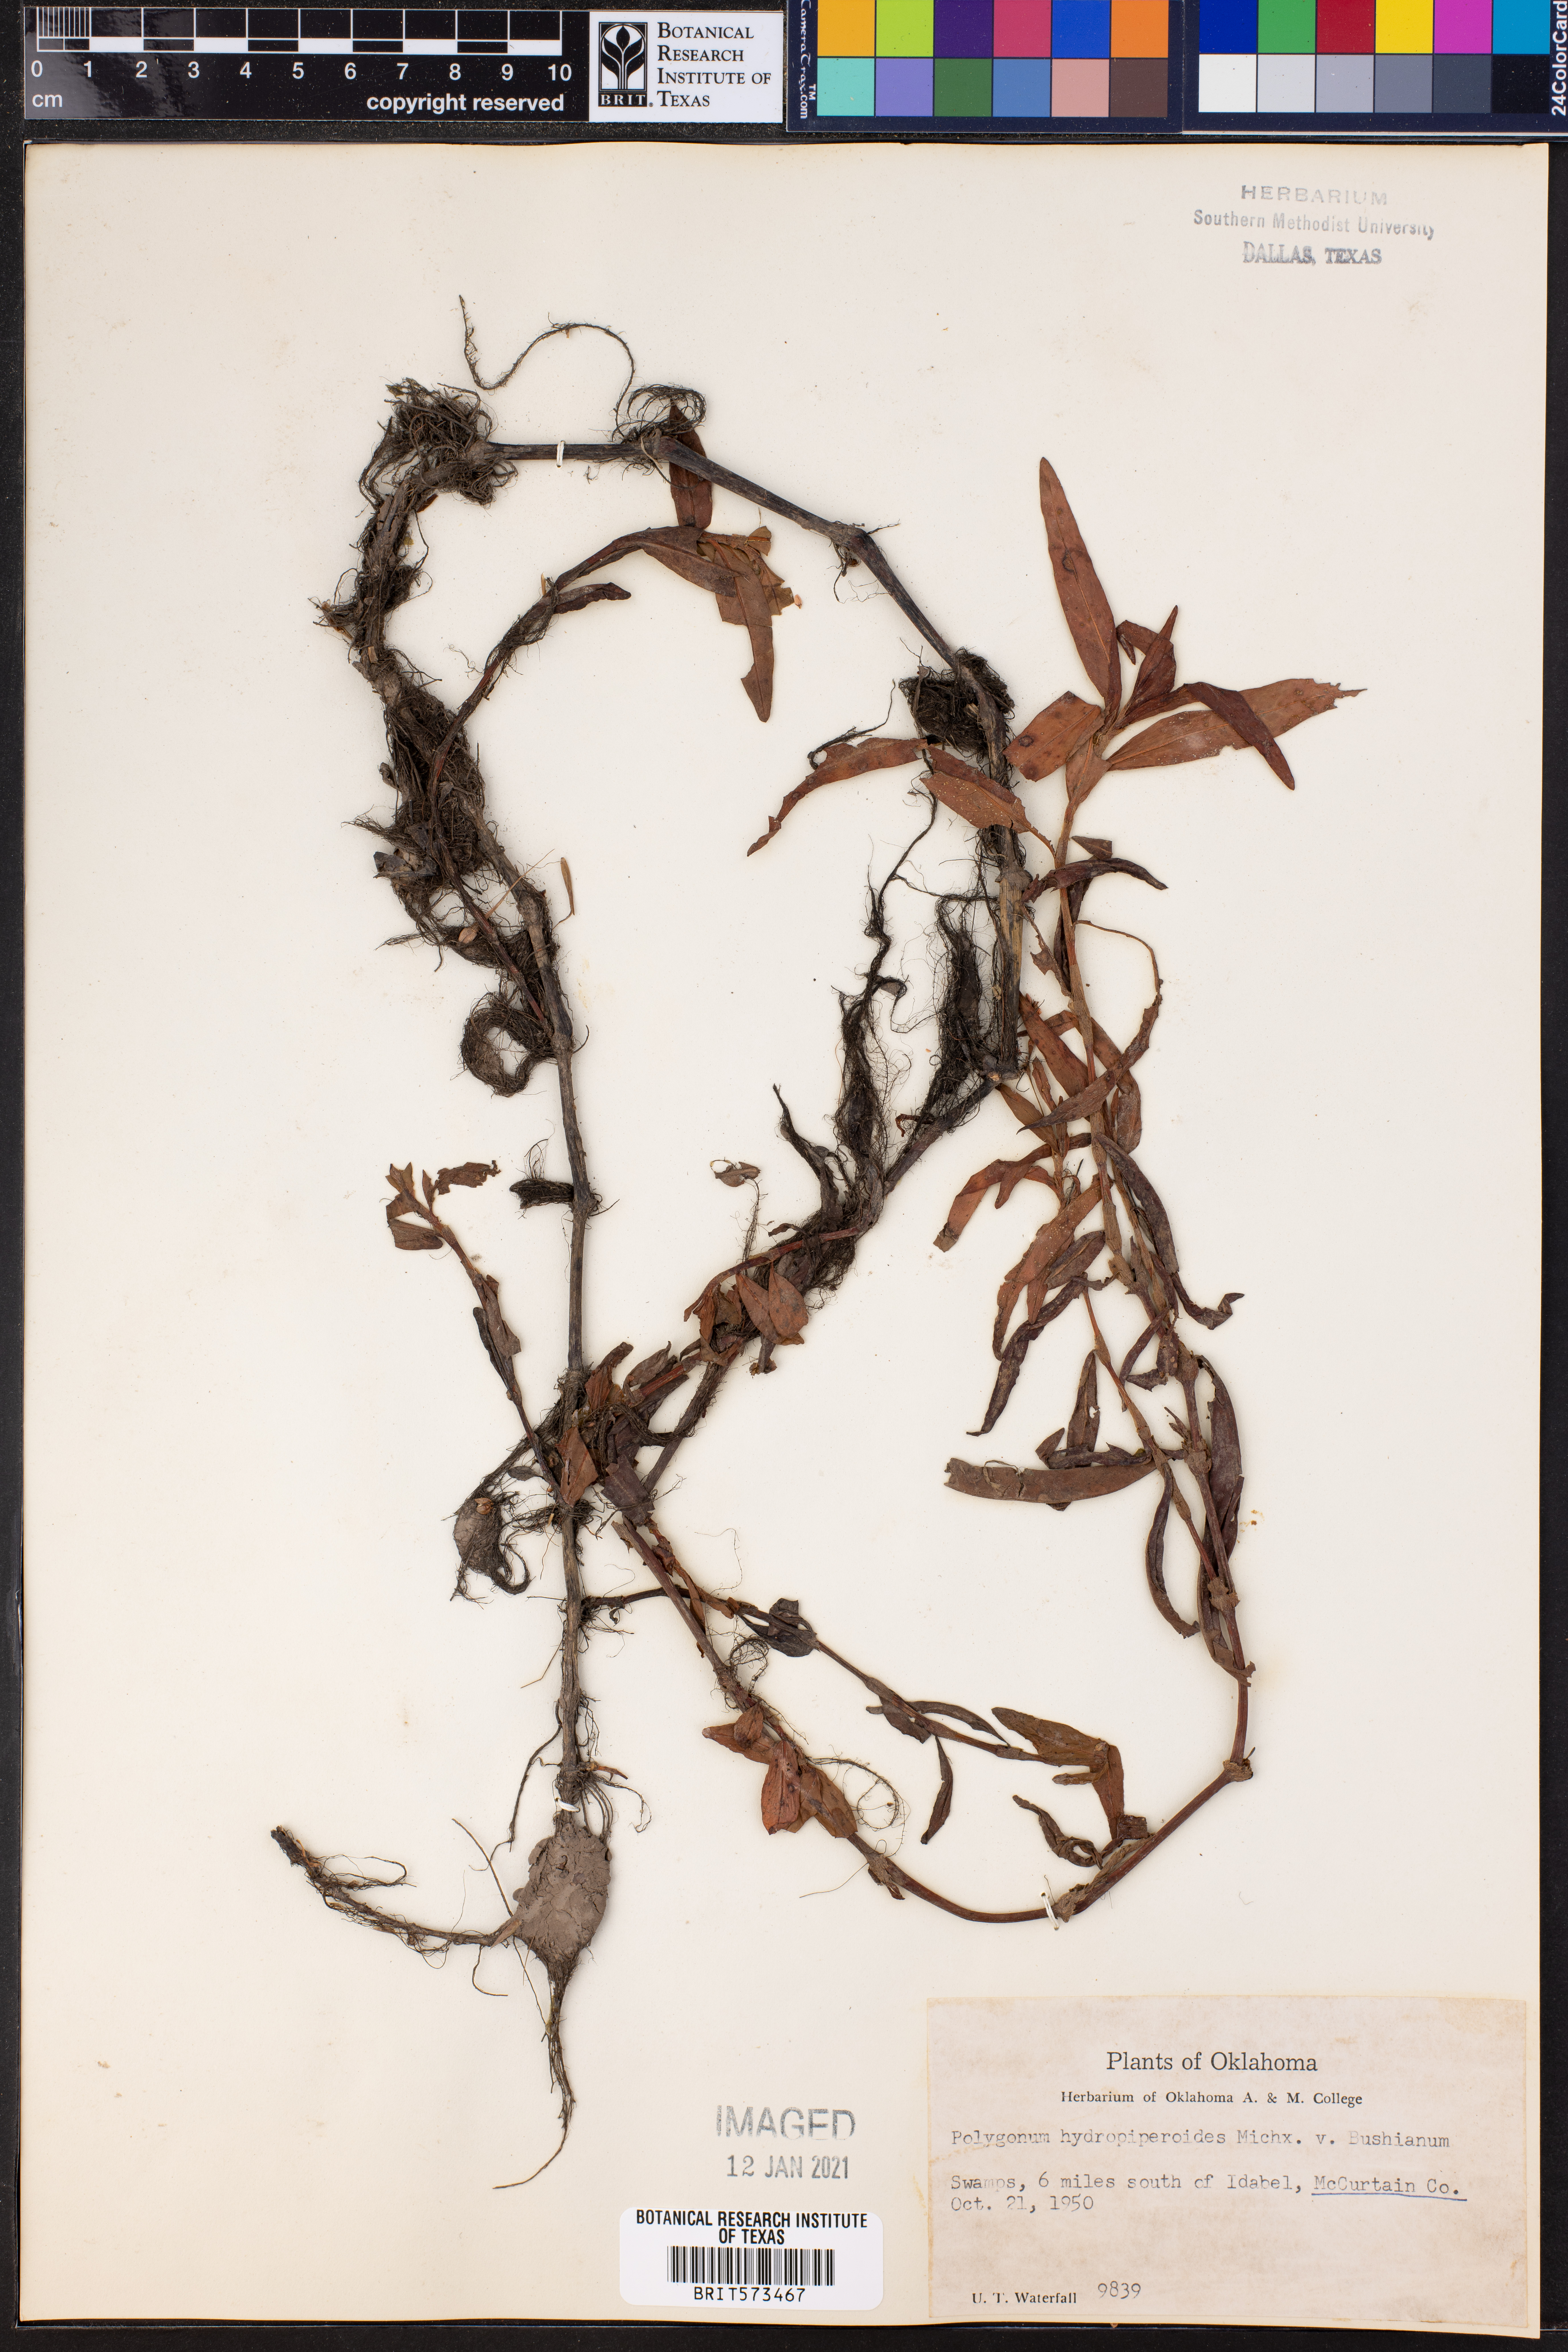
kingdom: Plantae
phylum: Tracheophyta
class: Magnoliopsida
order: Caryophyllales
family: Polygonaceae
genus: Persicaria
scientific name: Persicaria hydropiperoides
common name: Swamp smartweed
